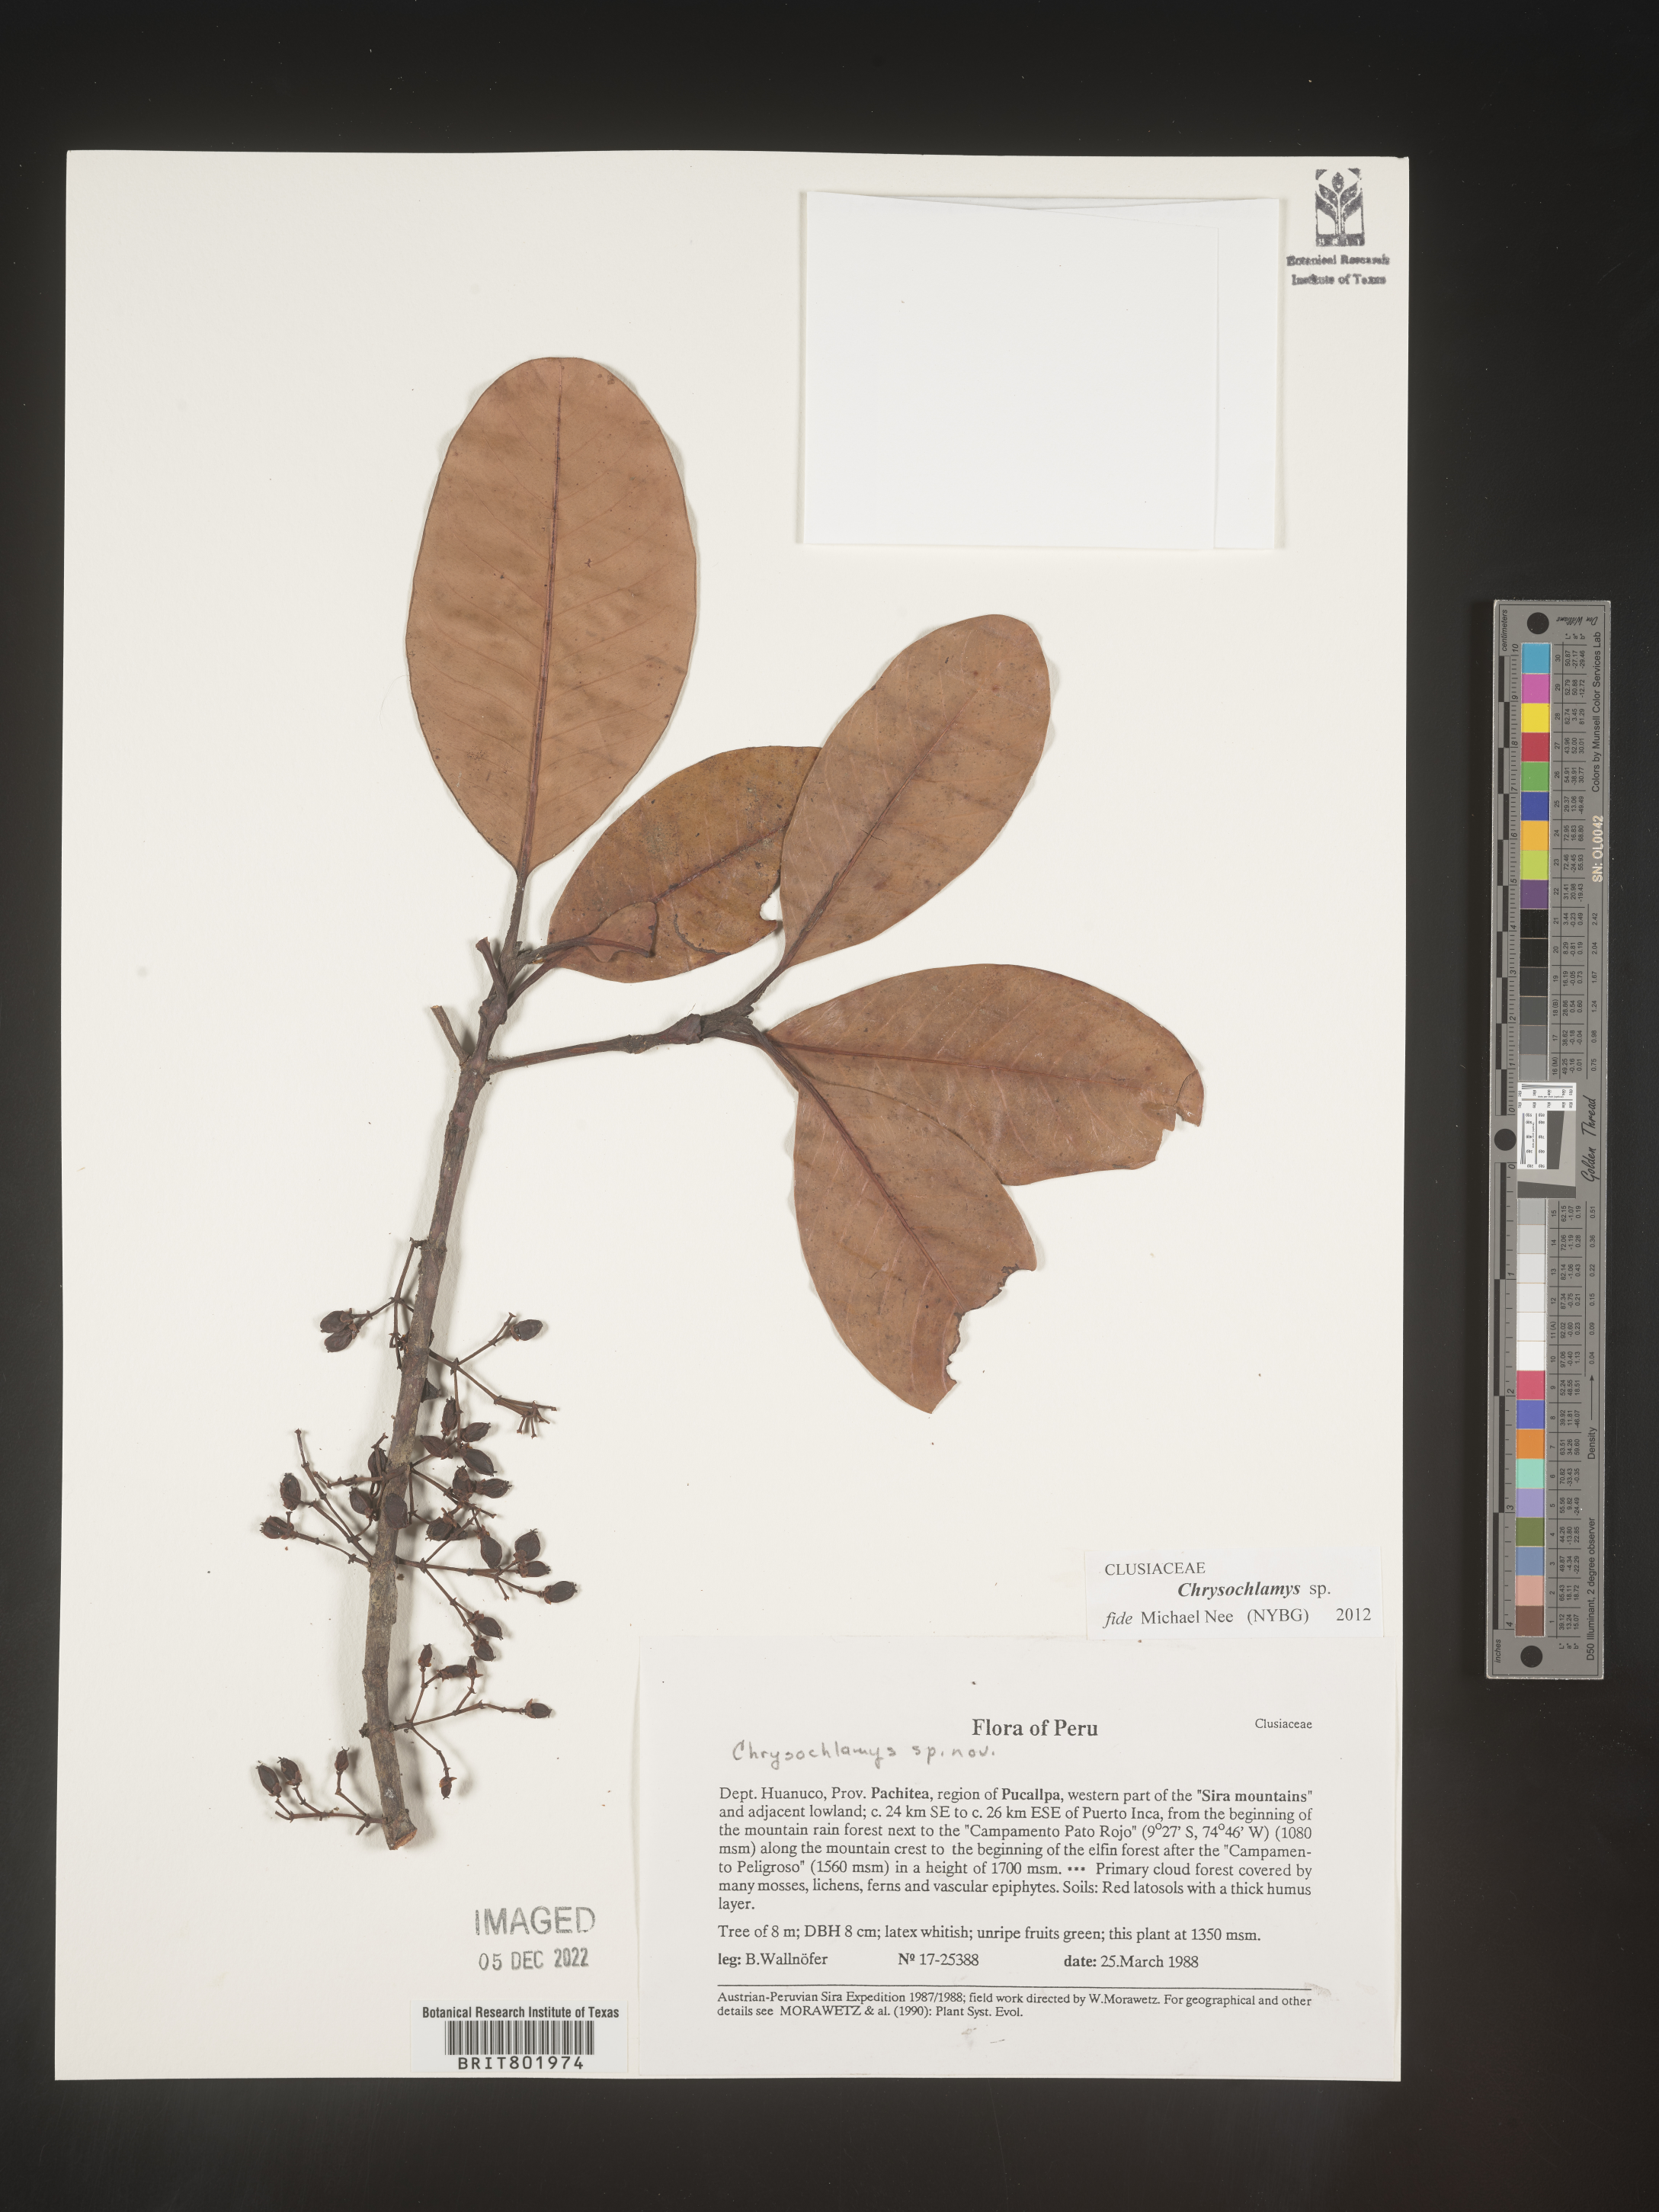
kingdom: Plantae
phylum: Tracheophyta
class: Magnoliopsida
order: Malpighiales
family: Clusiaceae
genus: Chrysochlamys
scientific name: Chrysochlamys
